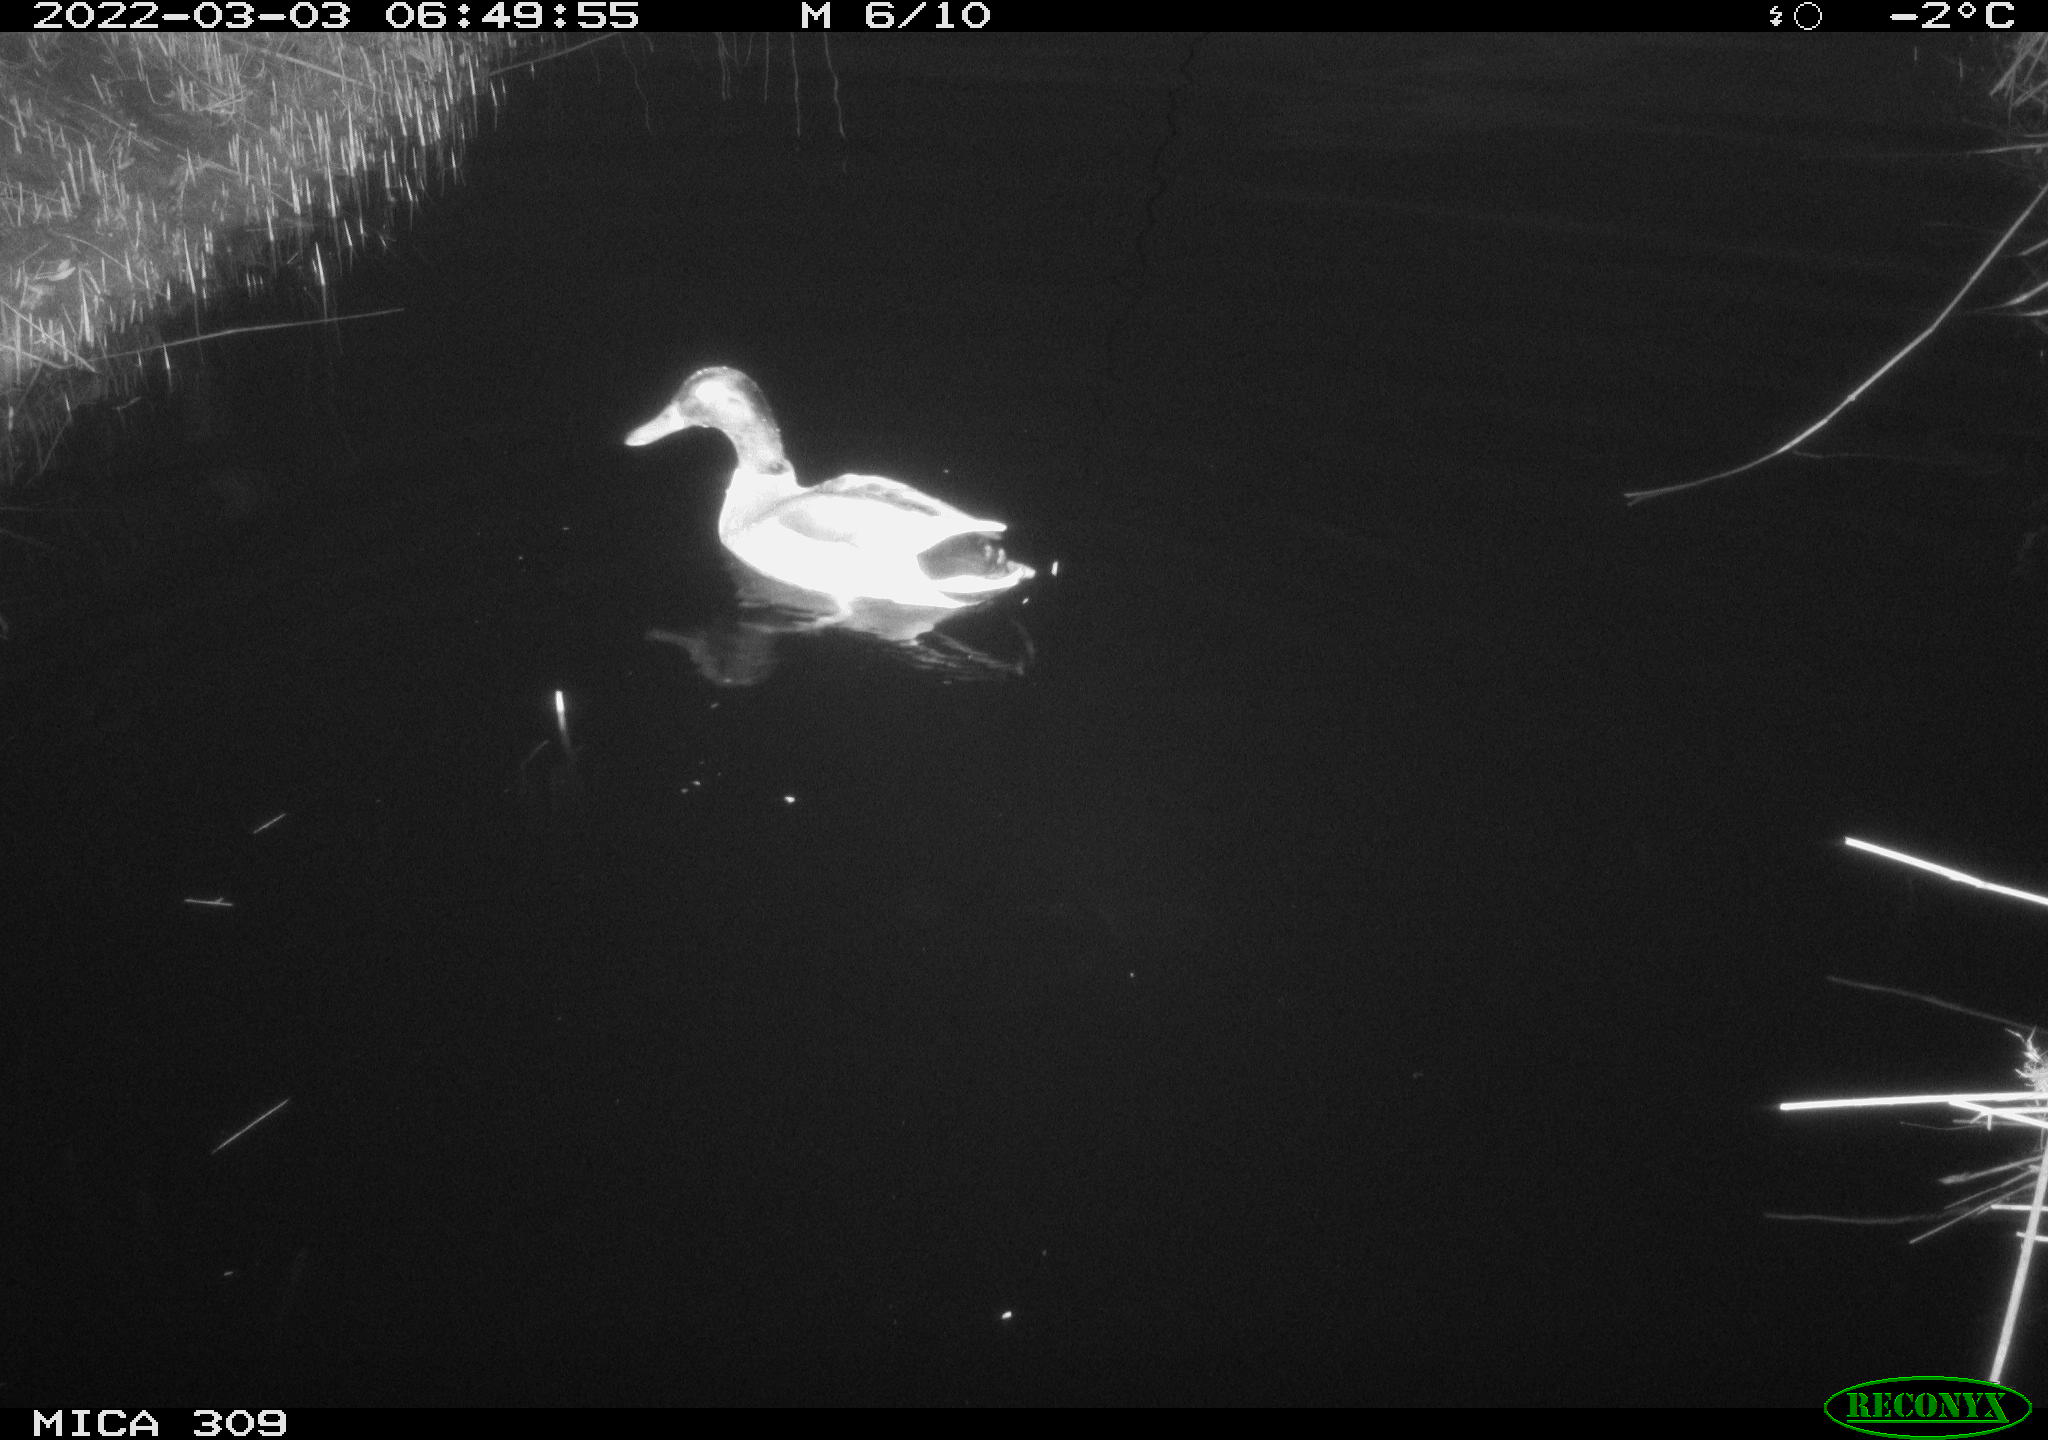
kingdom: Animalia
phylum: Chordata
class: Aves
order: Anseriformes
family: Anatidae
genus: Anas
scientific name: Anas platyrhynchos
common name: Mallard
